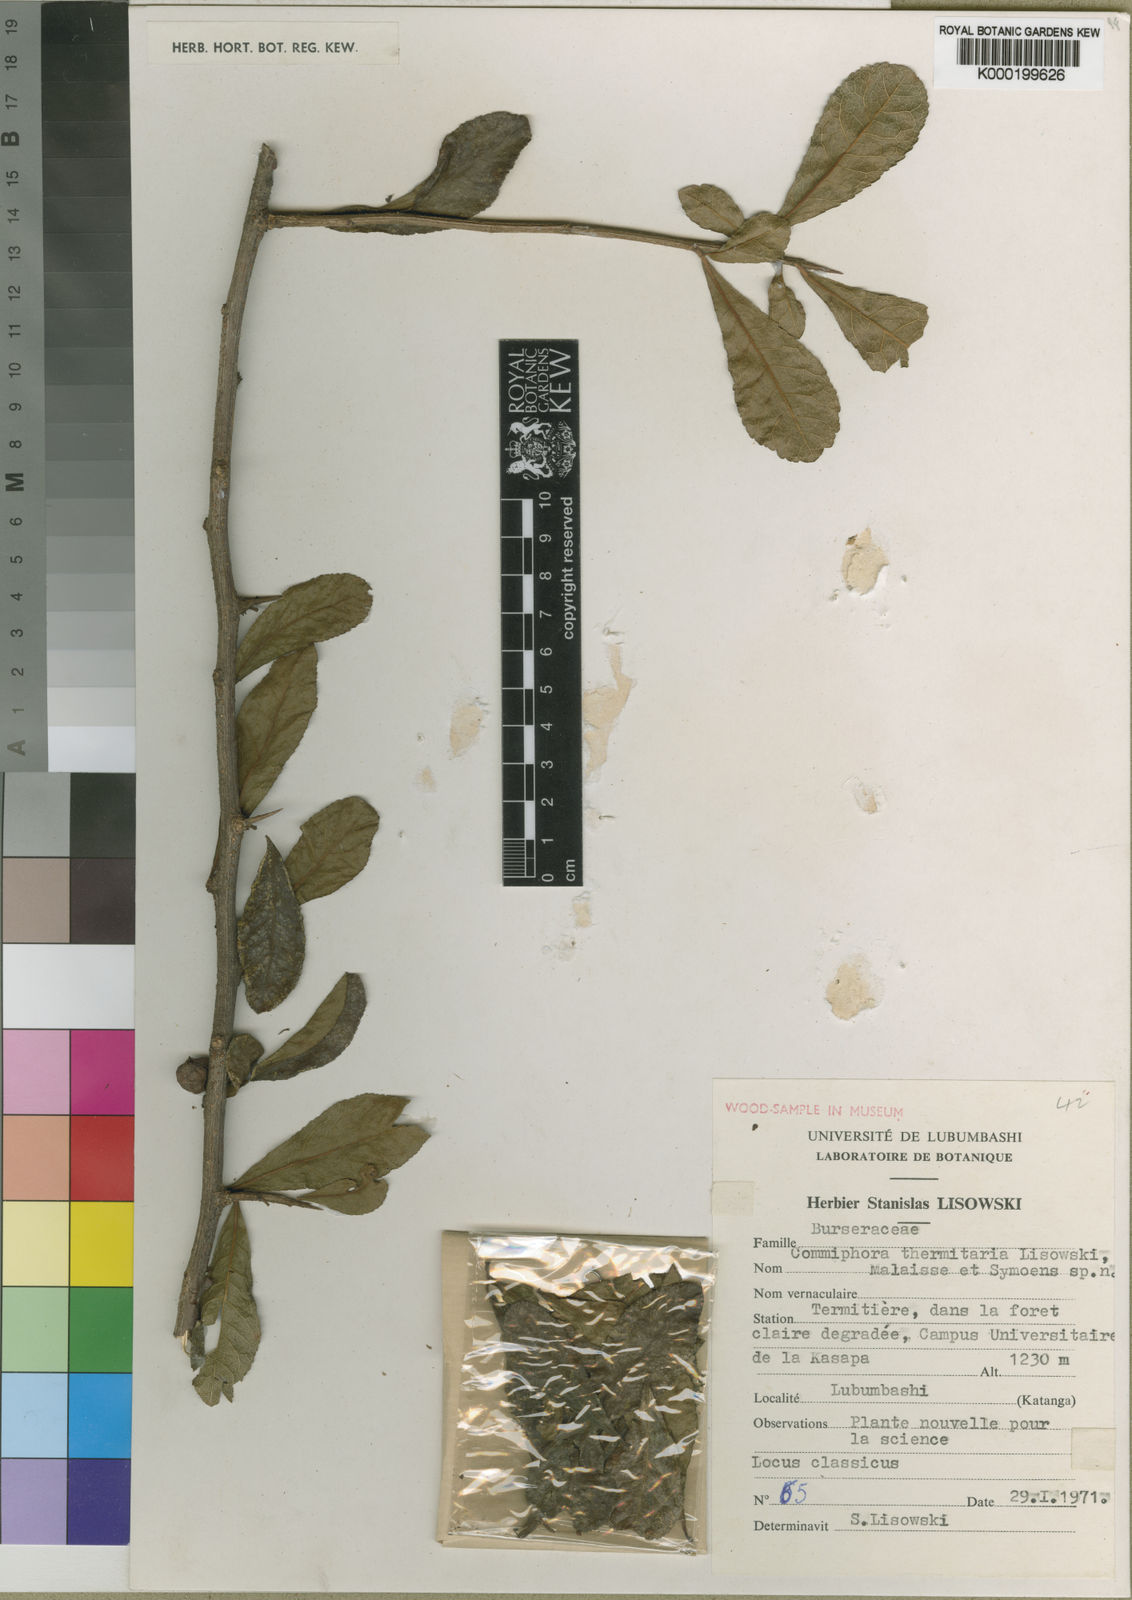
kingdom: Plantae
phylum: Tracheophyta
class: Magnoliopsida
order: Sapindales
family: Burseraceae
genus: Commiphora
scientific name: Commiphora glandulosa
